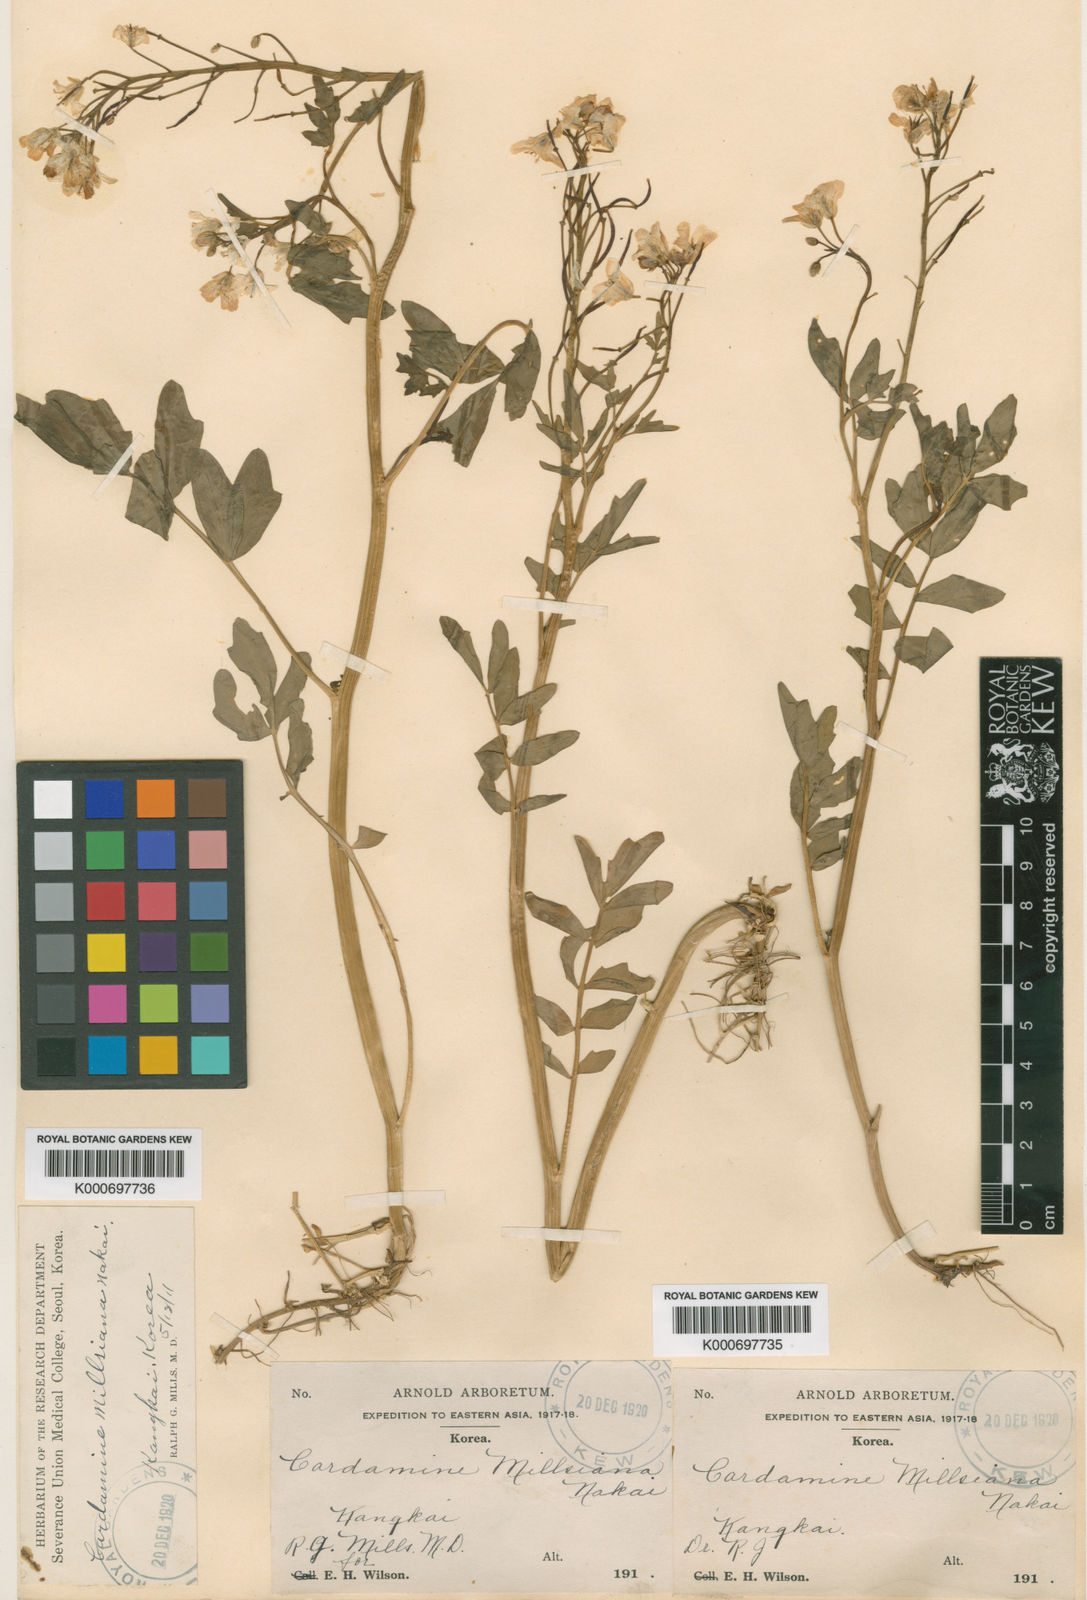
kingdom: Plantae
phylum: Tracheophyta
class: Magnoliopsida
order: Brassicales
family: Brassicaceae
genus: Cardamine
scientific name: Cardamine prorepens
